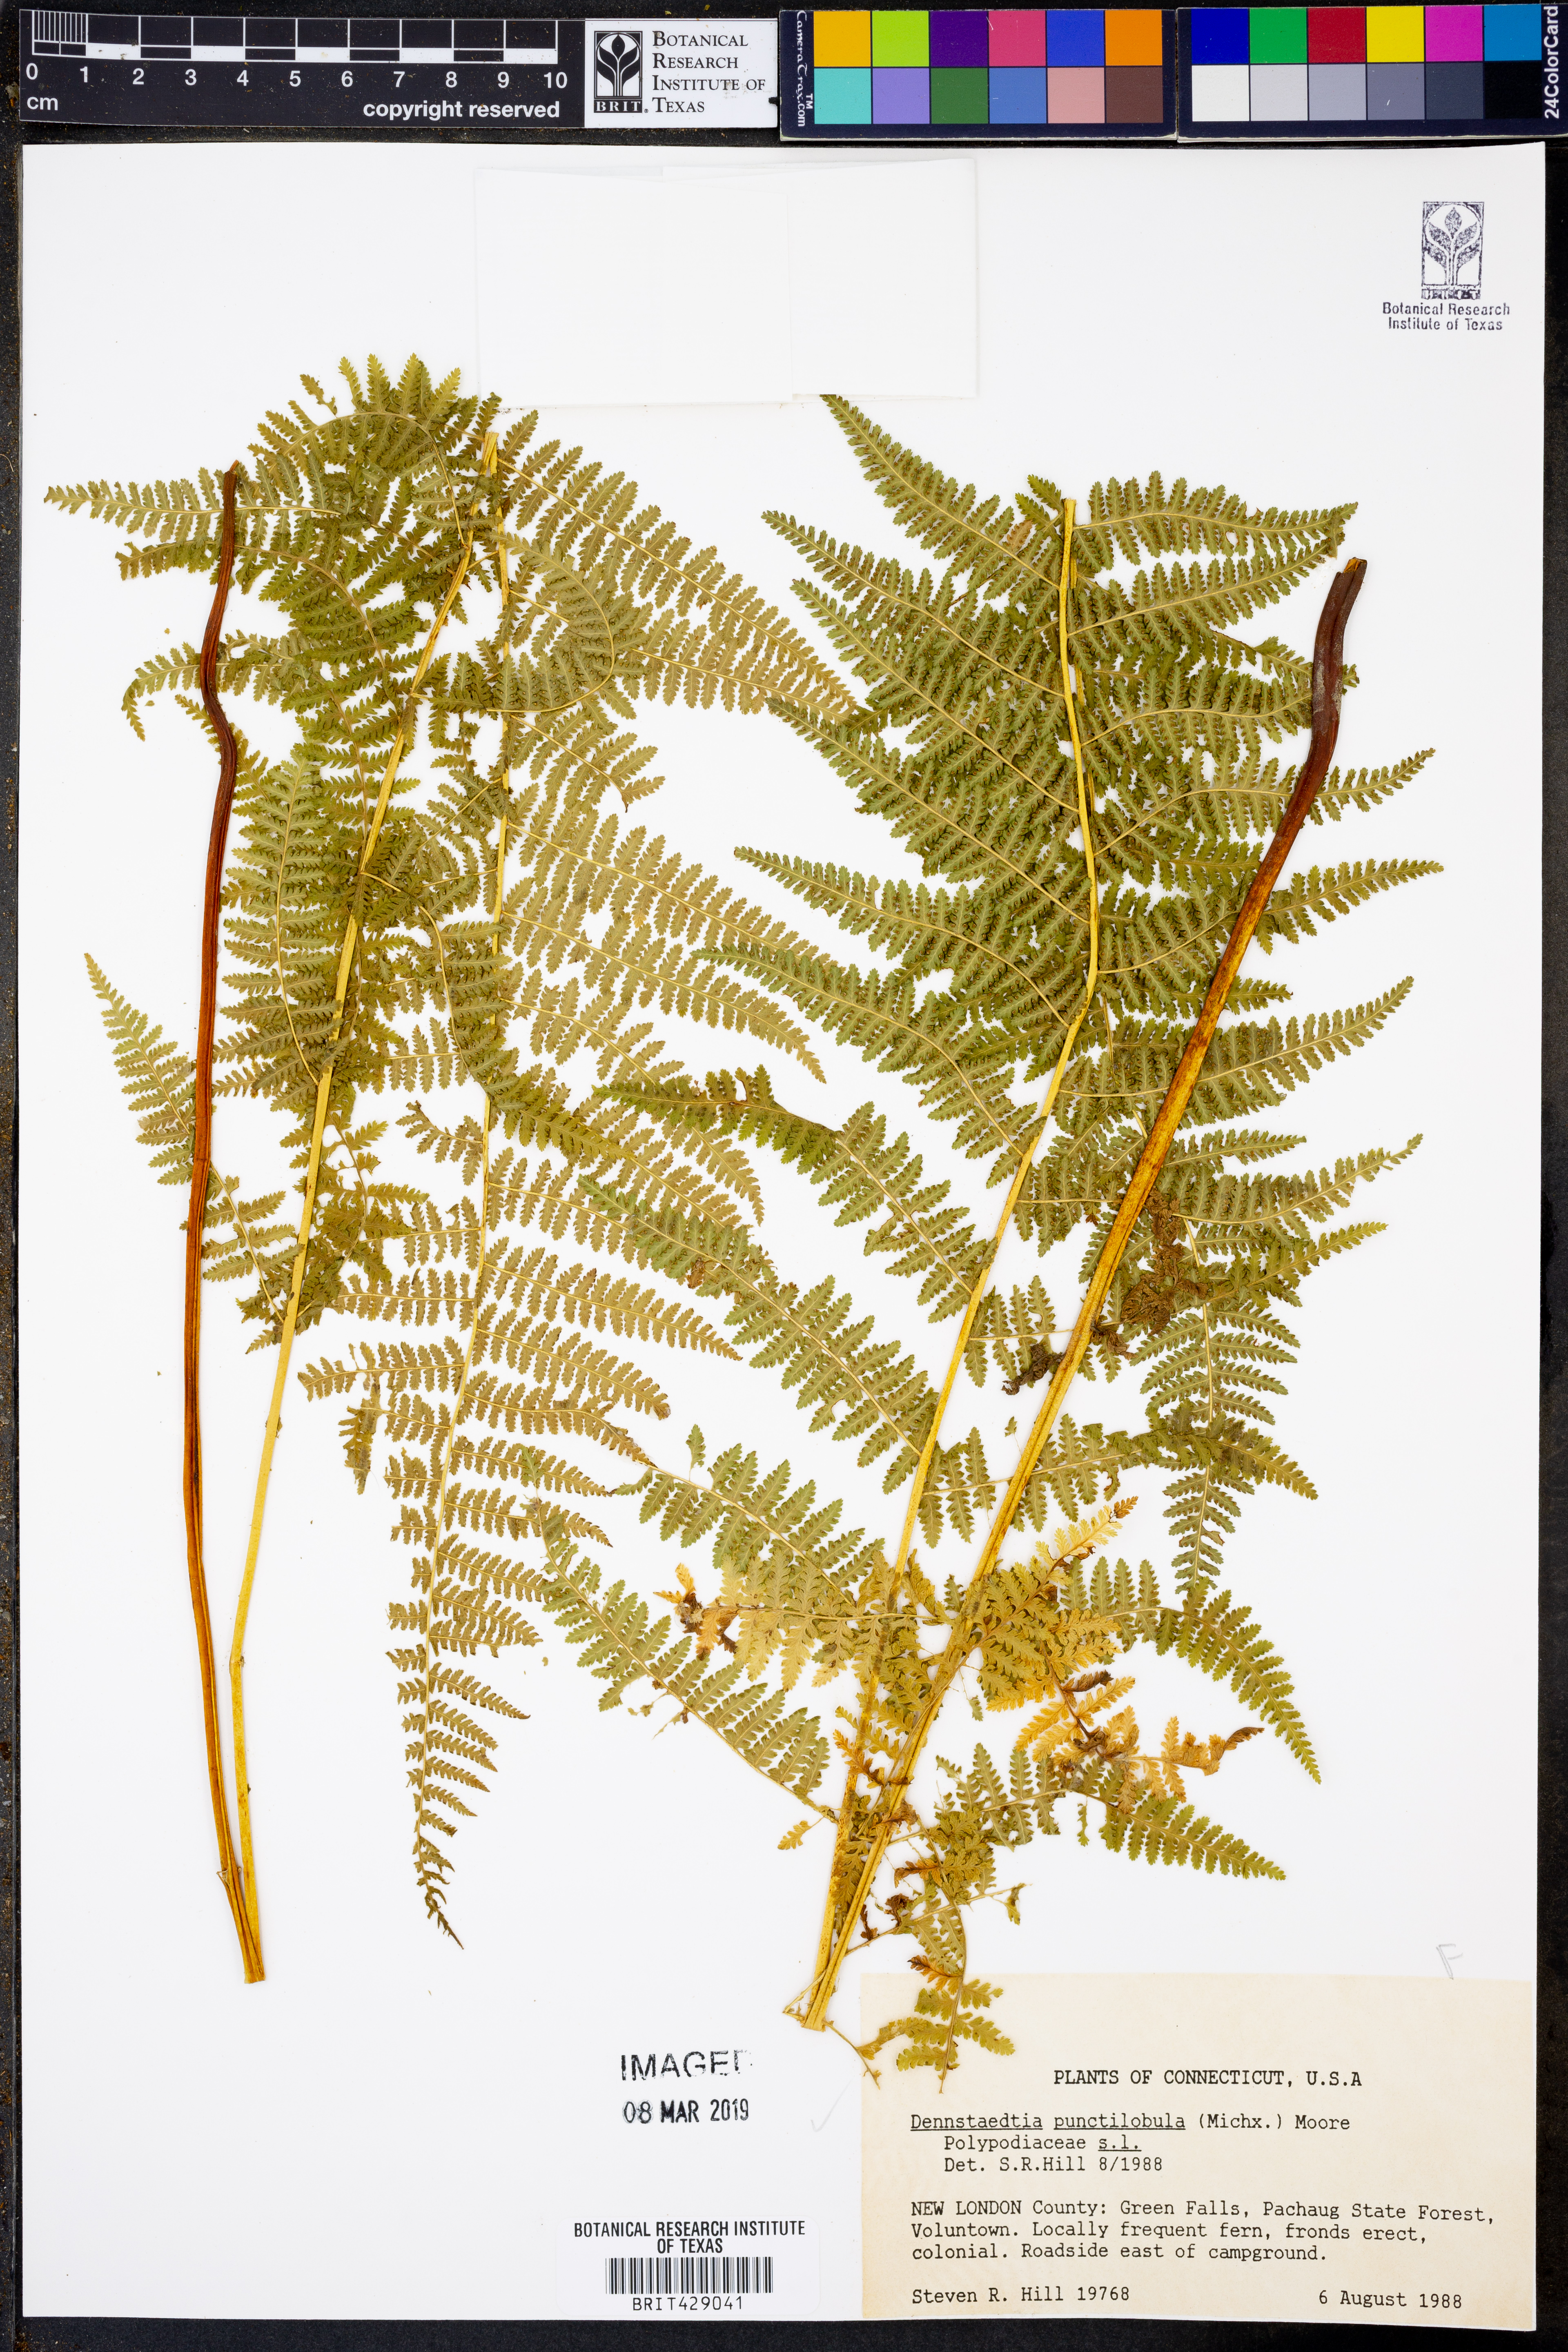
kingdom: Plantae
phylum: Tracheophyta
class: Polypodiopsida
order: Polypodiales
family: Dennstaedtiaceae
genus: Sitobolium
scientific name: Sitobolium punctilobum
